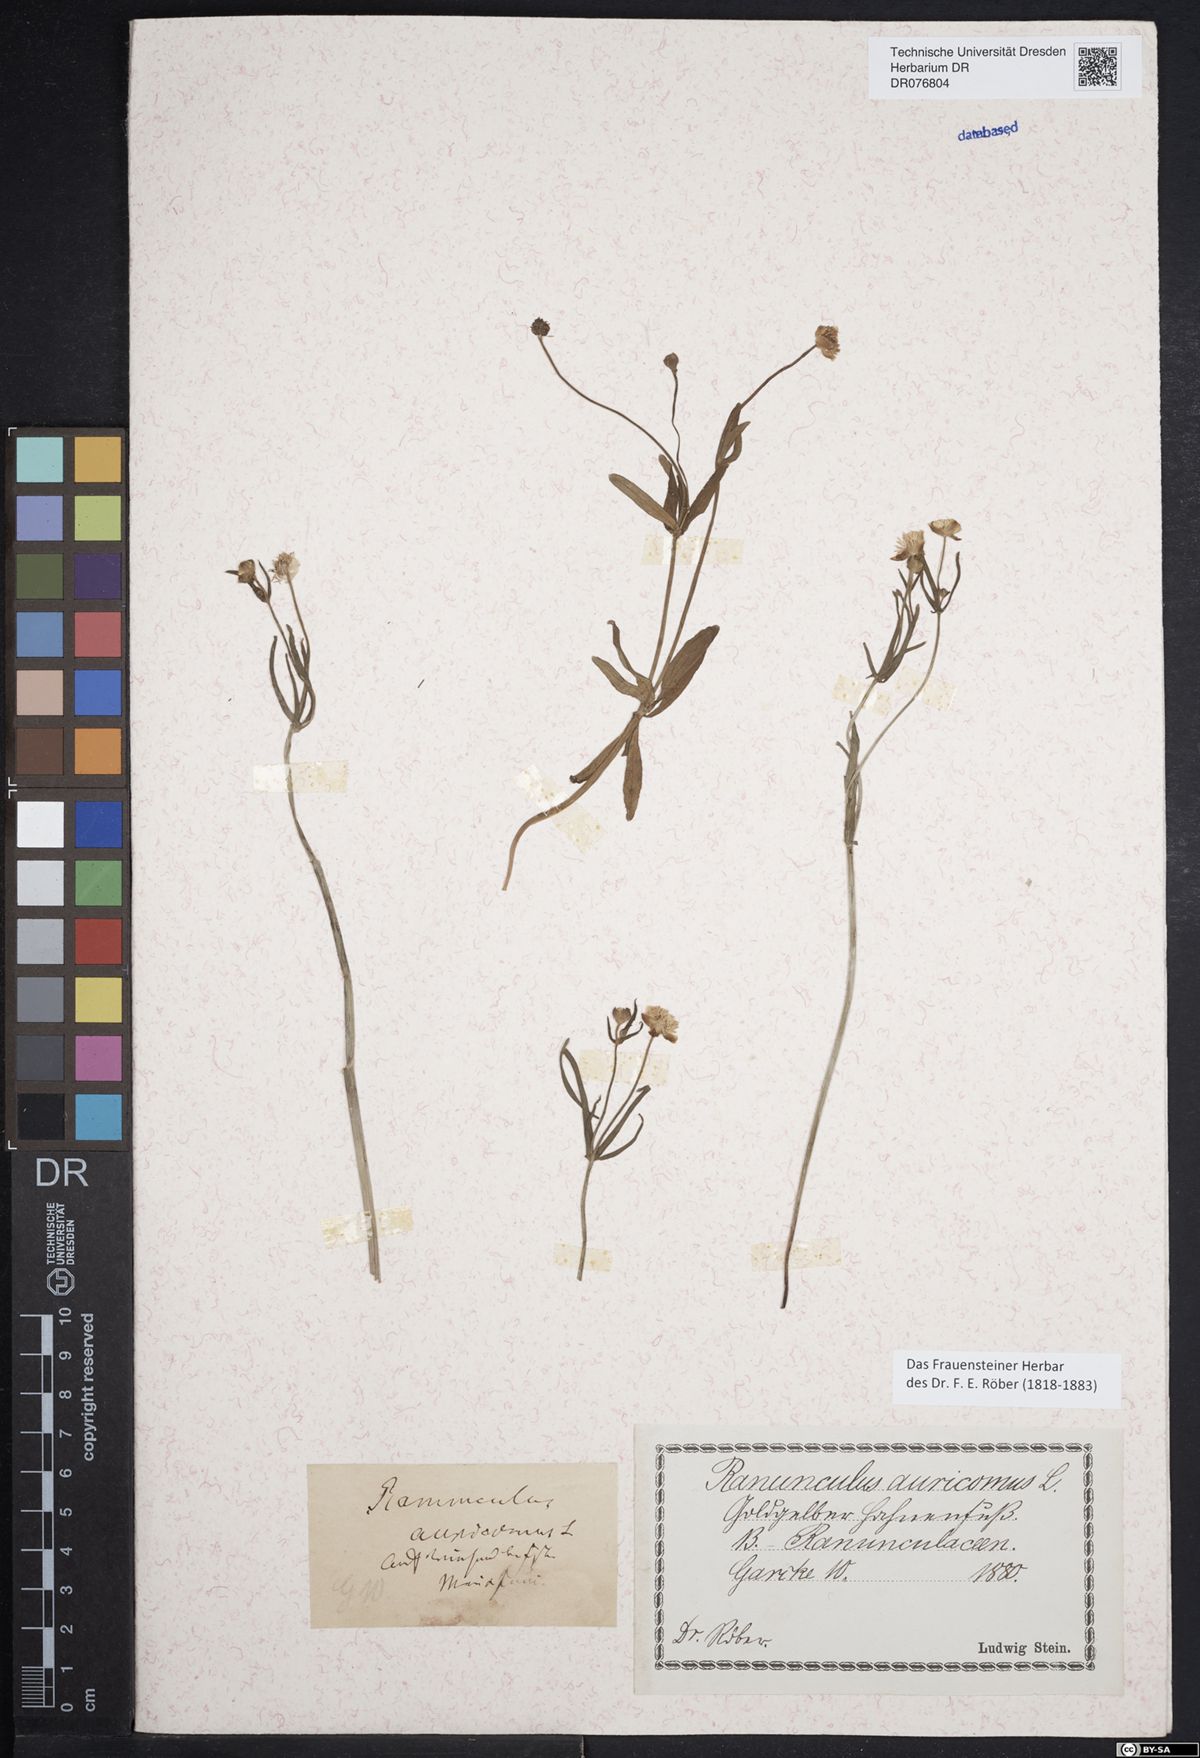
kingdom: Plantae
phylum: Tracheophyta
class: Magnoliopsida
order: Ranunculales
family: Ranunculaceae
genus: Ranunculus
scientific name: Ranunculus auricomus
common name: Goldilocks buttercup
